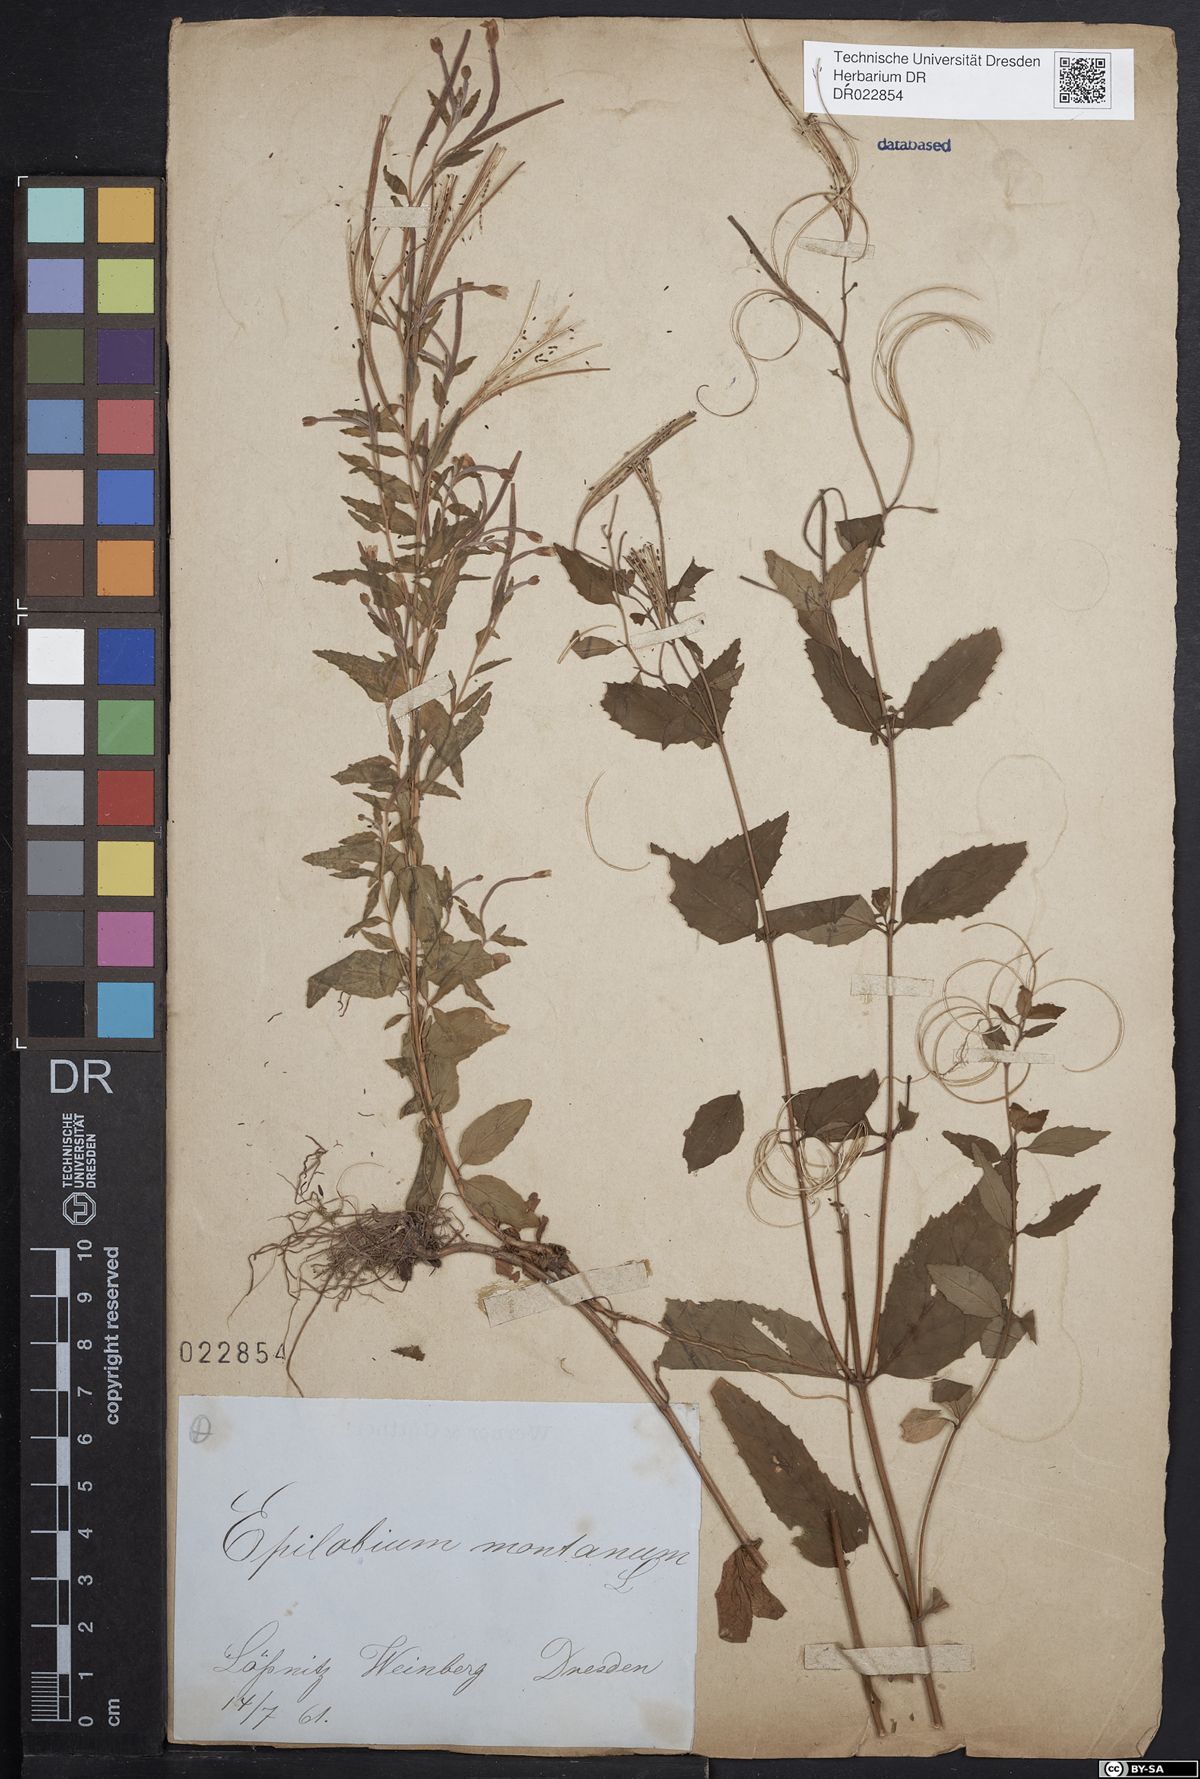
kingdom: Plantae
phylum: Tracheophyta
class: Magnoliopsida
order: Myrtales
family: Onagraceae
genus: Epilobium
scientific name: Epilobium montanum
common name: Broad-leaved willowherb
